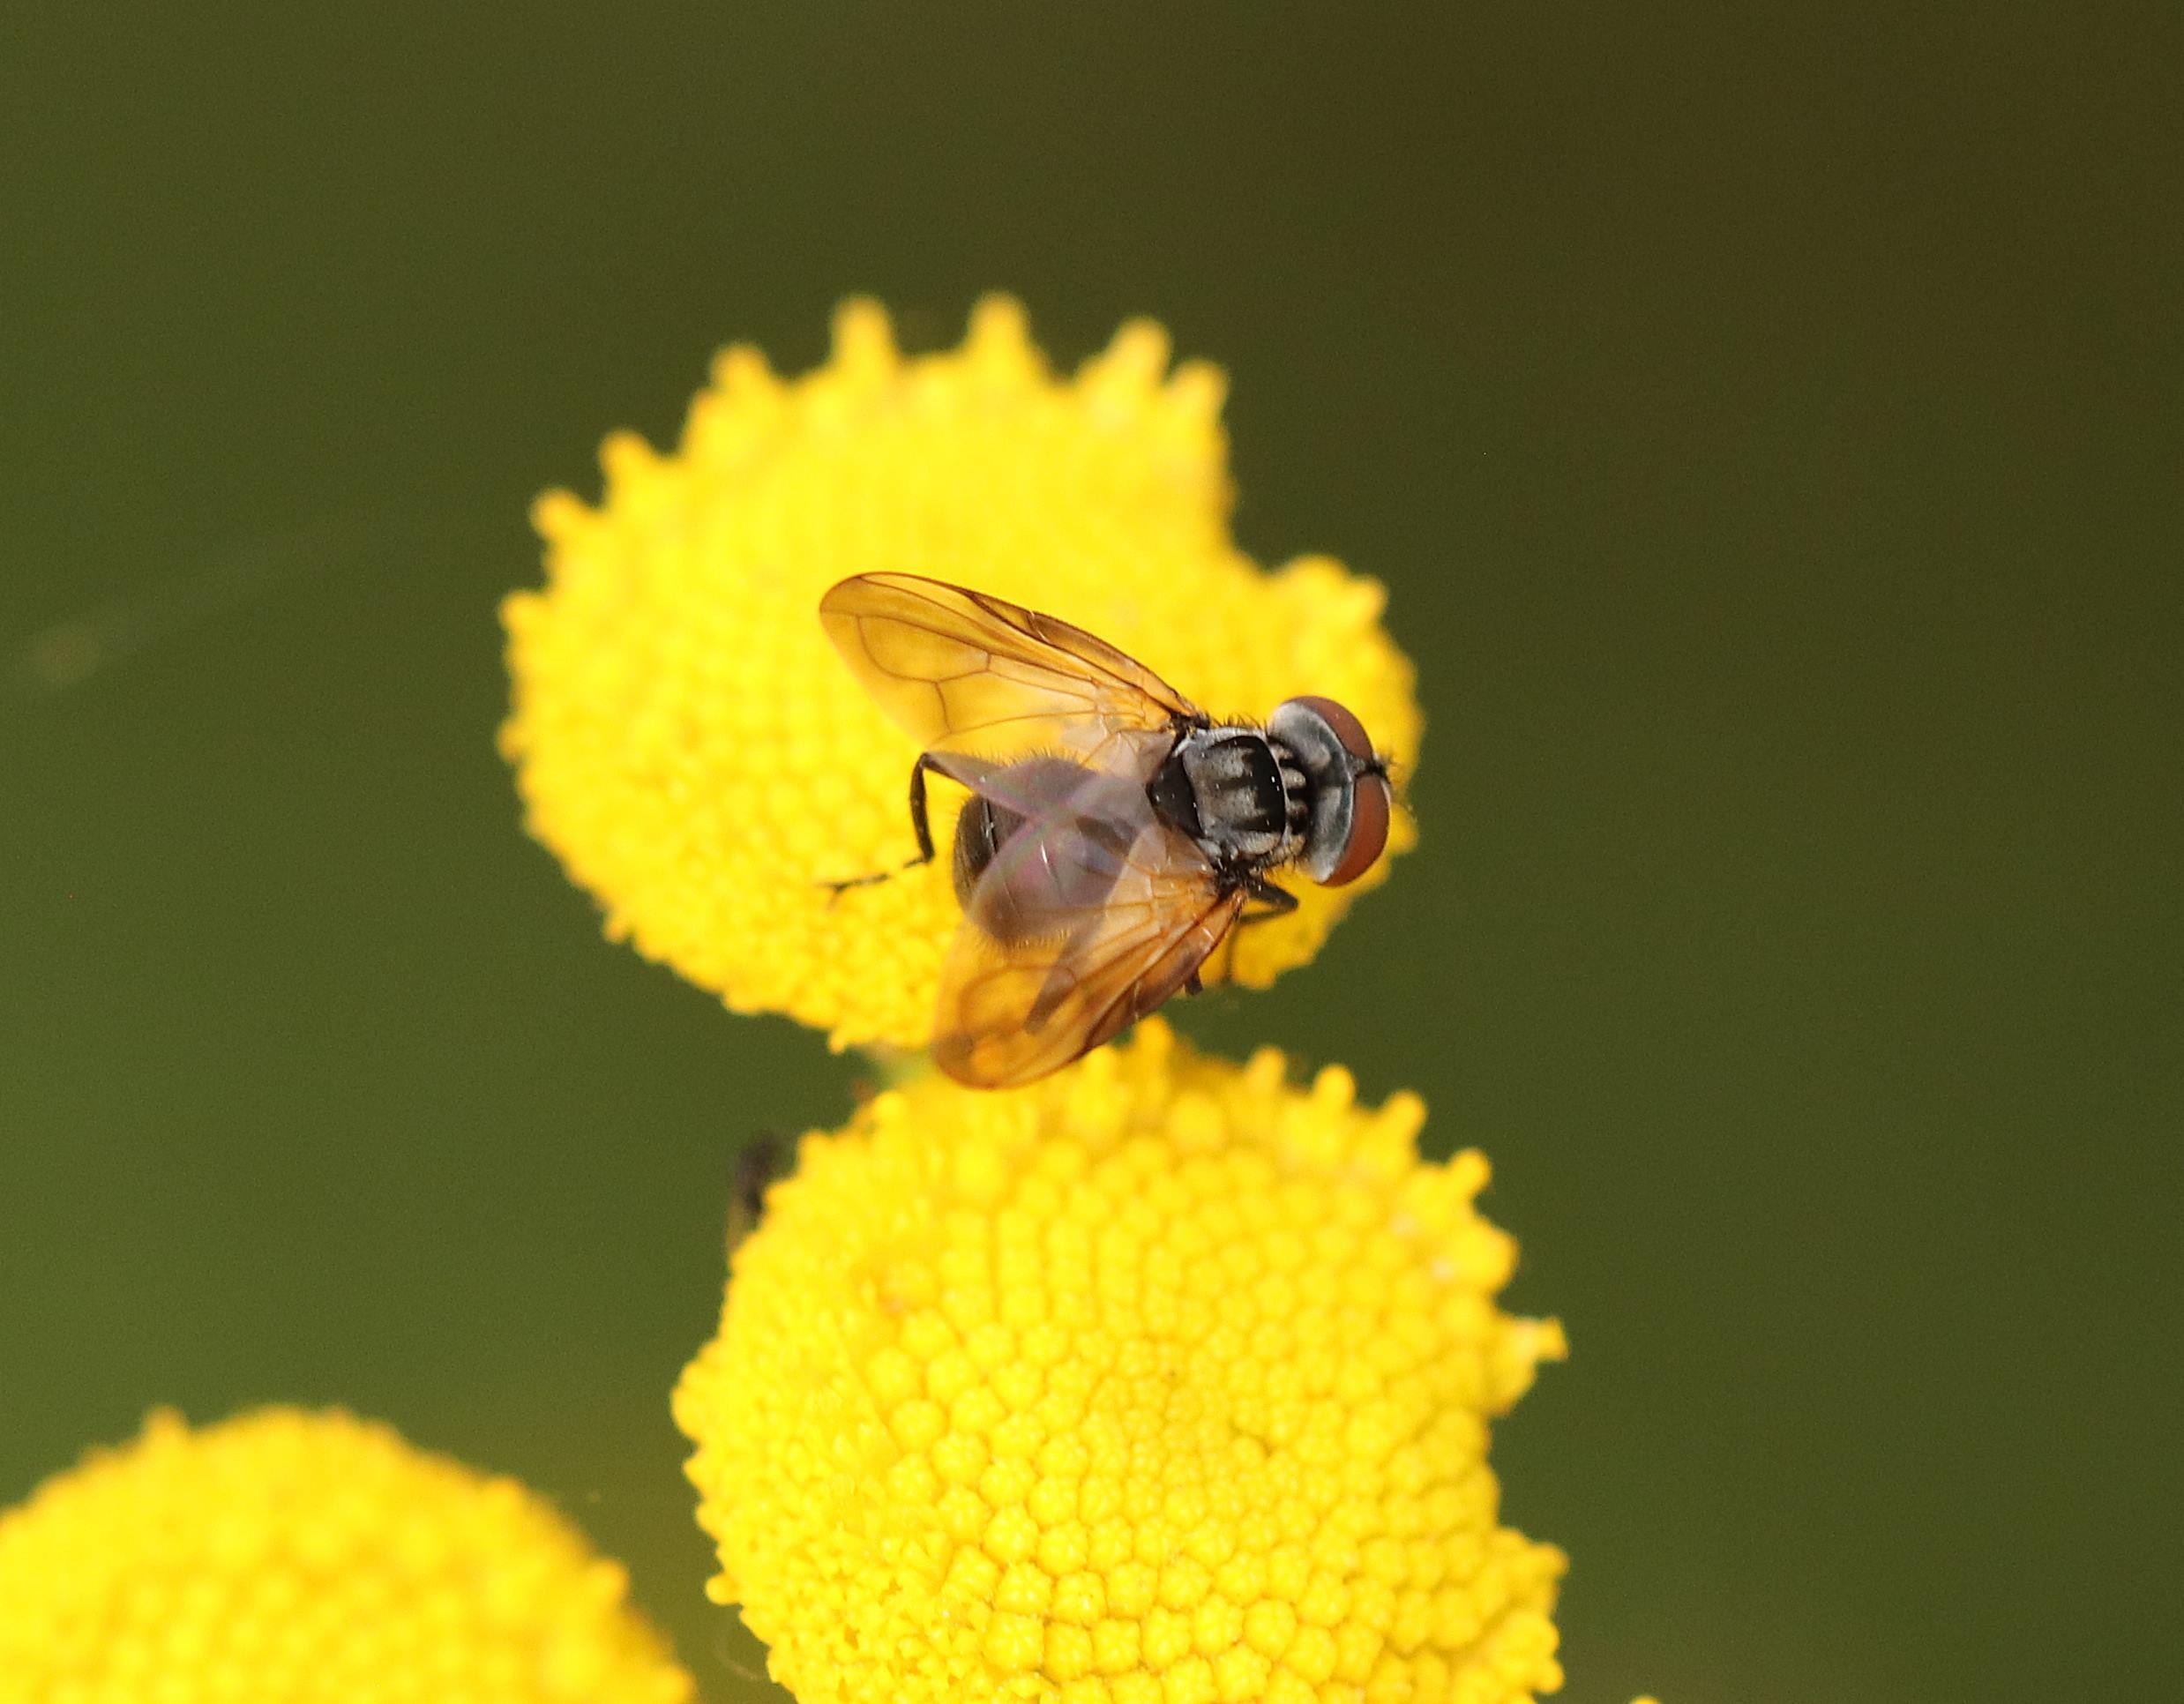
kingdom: Animalia
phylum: Arthropoda
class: Insecta
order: Diptera
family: Tachinidae
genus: Phasia
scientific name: Phasia obesa
